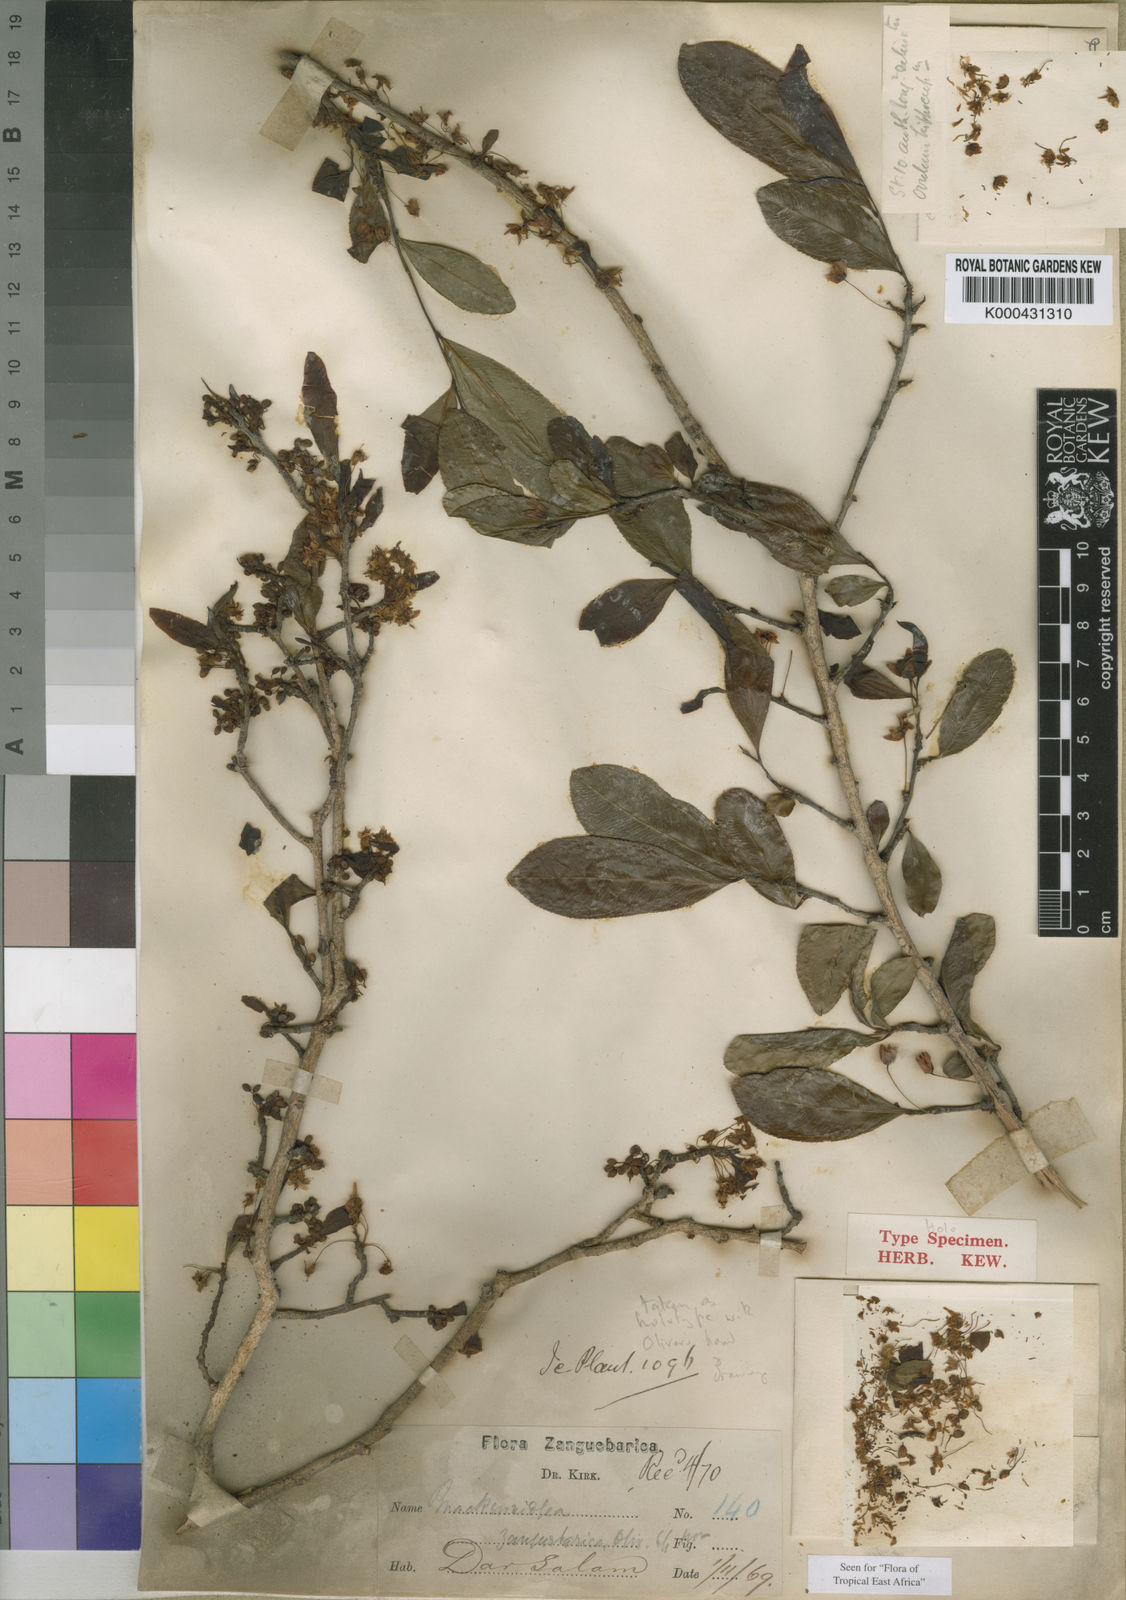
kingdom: Plantae
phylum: Tracheophyta
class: Magnoliopsida
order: Malpighiales
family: Ochnaceae
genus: Brackenridgea
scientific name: Brackenridgea zanguebarica
